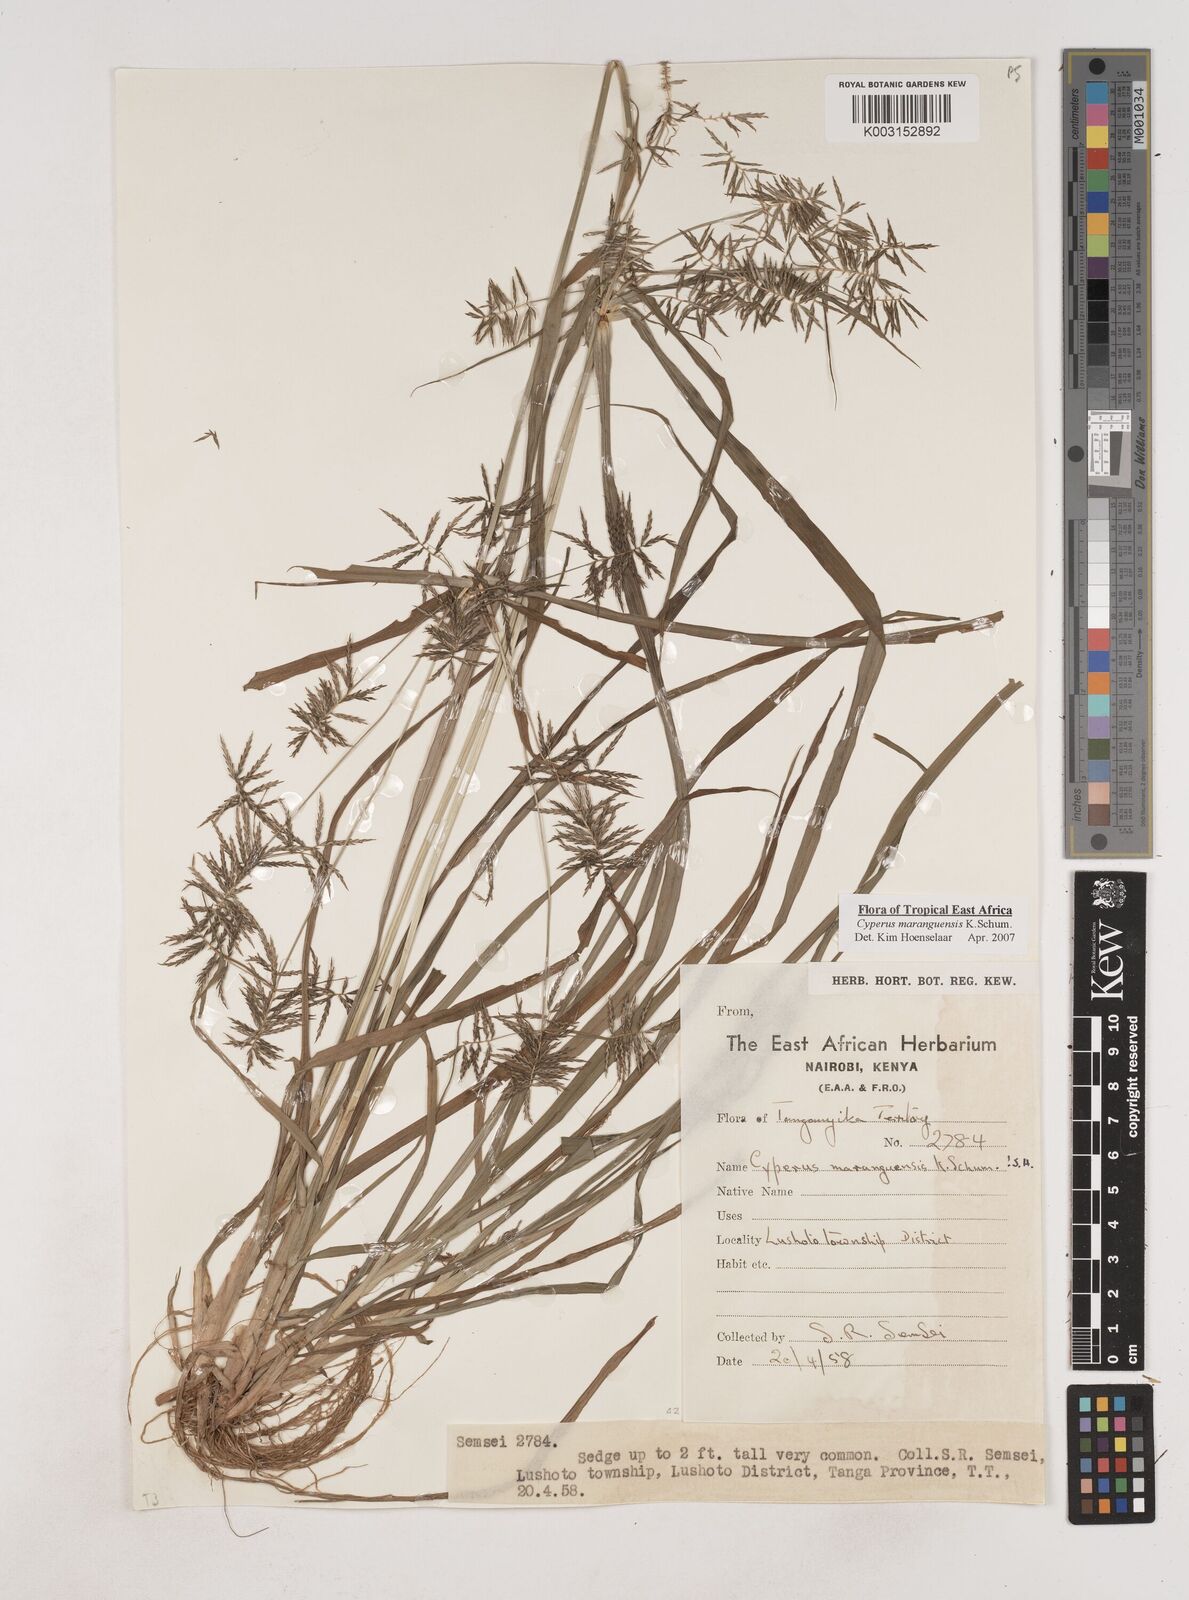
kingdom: Plantae
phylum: Tracheophyta
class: Liliopsida
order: Poales
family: Cyperaceae
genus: Cyperus
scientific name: Cyperus maranguensis
